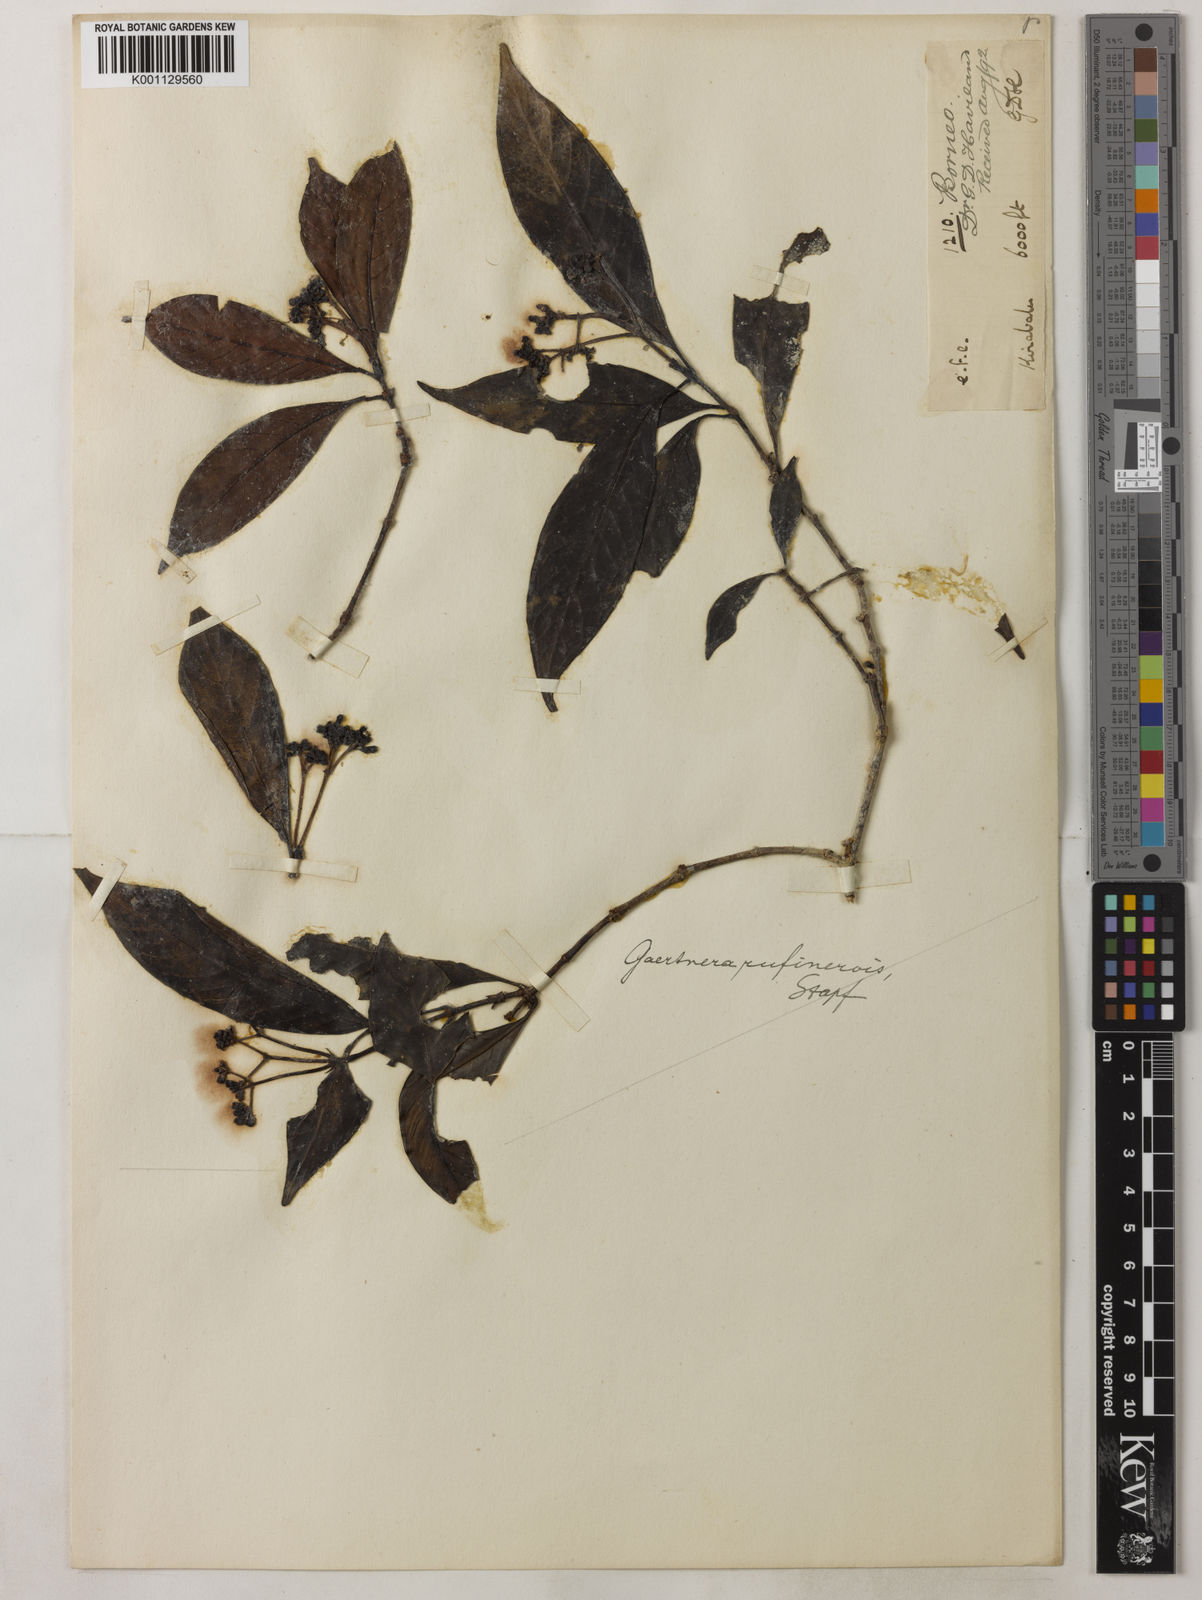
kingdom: Plantae
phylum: Tracheophyta
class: Magnoliopsida
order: Gentianales
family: Rubiaceae
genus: Gaertnera
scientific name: Gaertnera rufinervis
